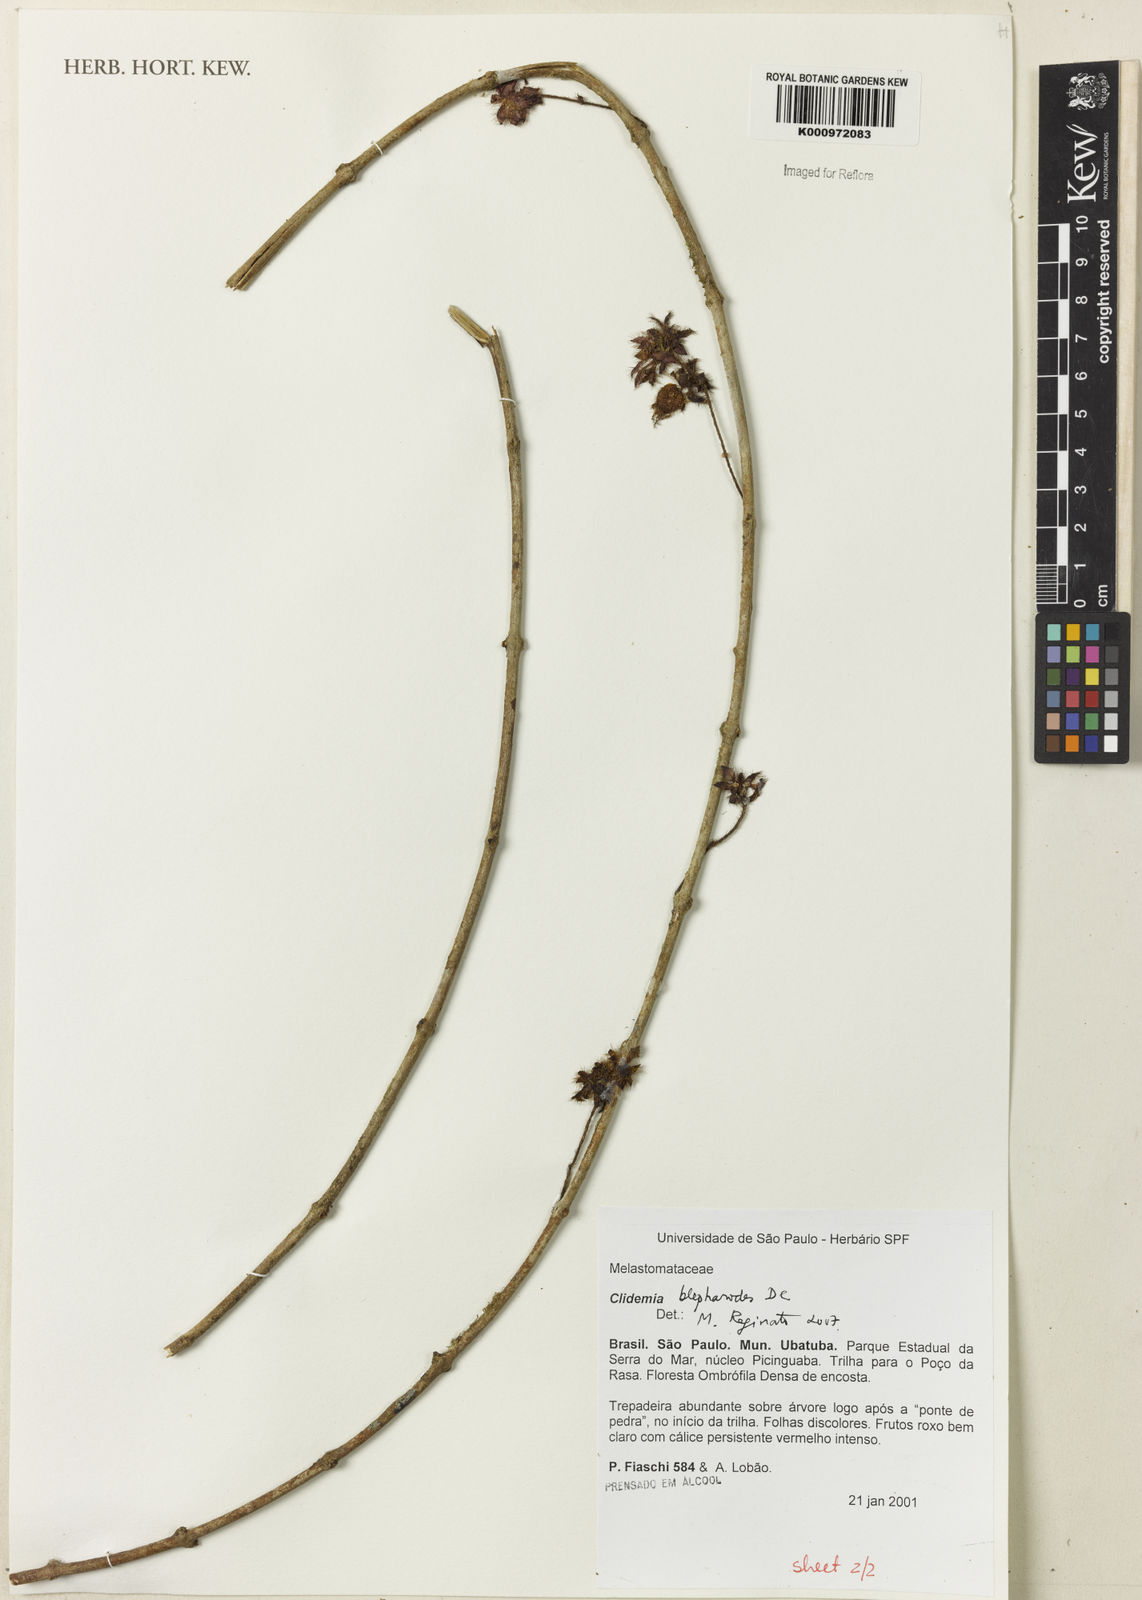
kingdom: Plantae
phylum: Tracheophyta
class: Magnoliopsida
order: Myrtales
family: Melastomataceae
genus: Miconia
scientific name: Miconia
